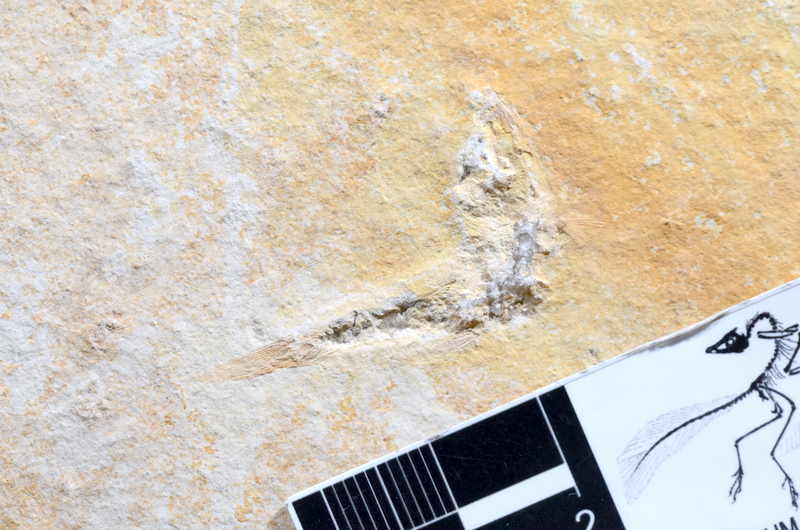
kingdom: Animalia
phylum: Chordata
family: Ascalaboidae
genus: Tharsis
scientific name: Tharsis dubius
